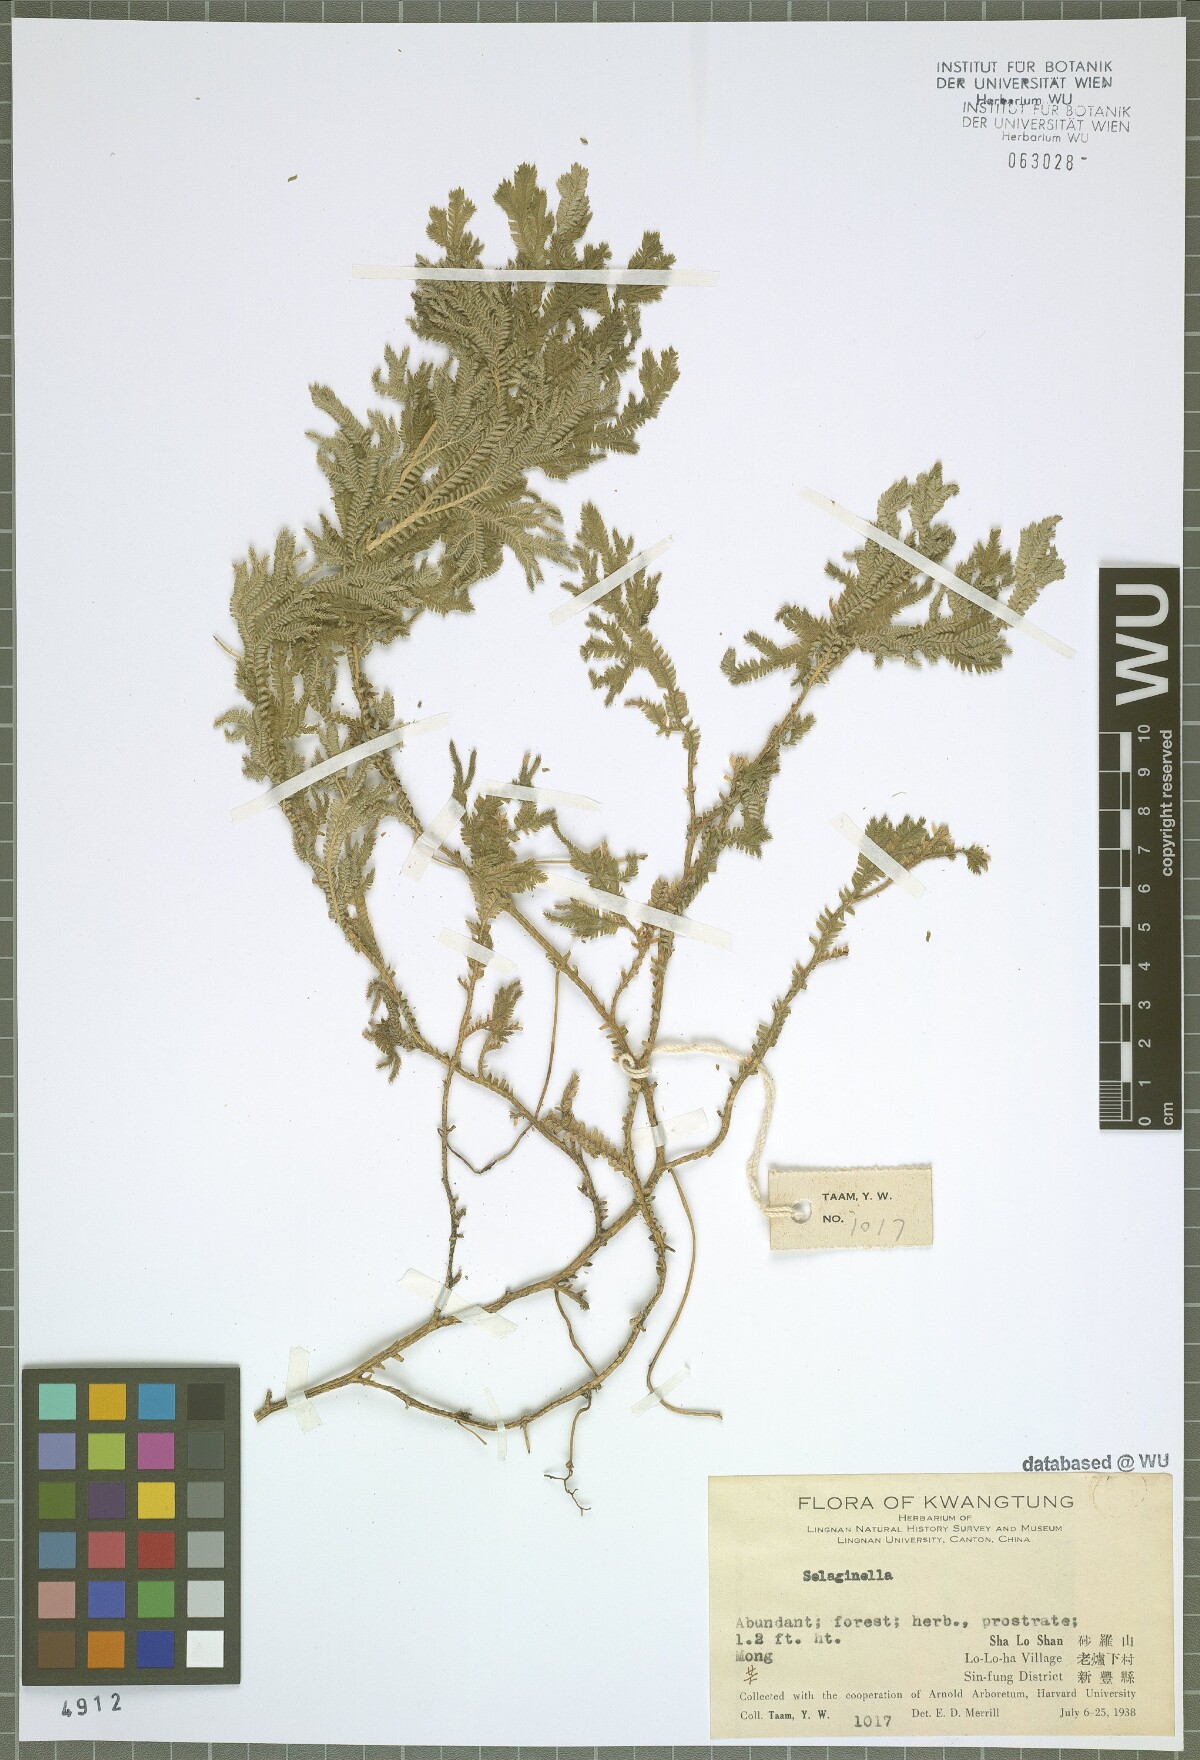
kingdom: Plantae
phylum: Tracheophyta
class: Lycopodiopsida
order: Selaginellales
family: Selaginellaceae
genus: Selaginella
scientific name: Selaginella
